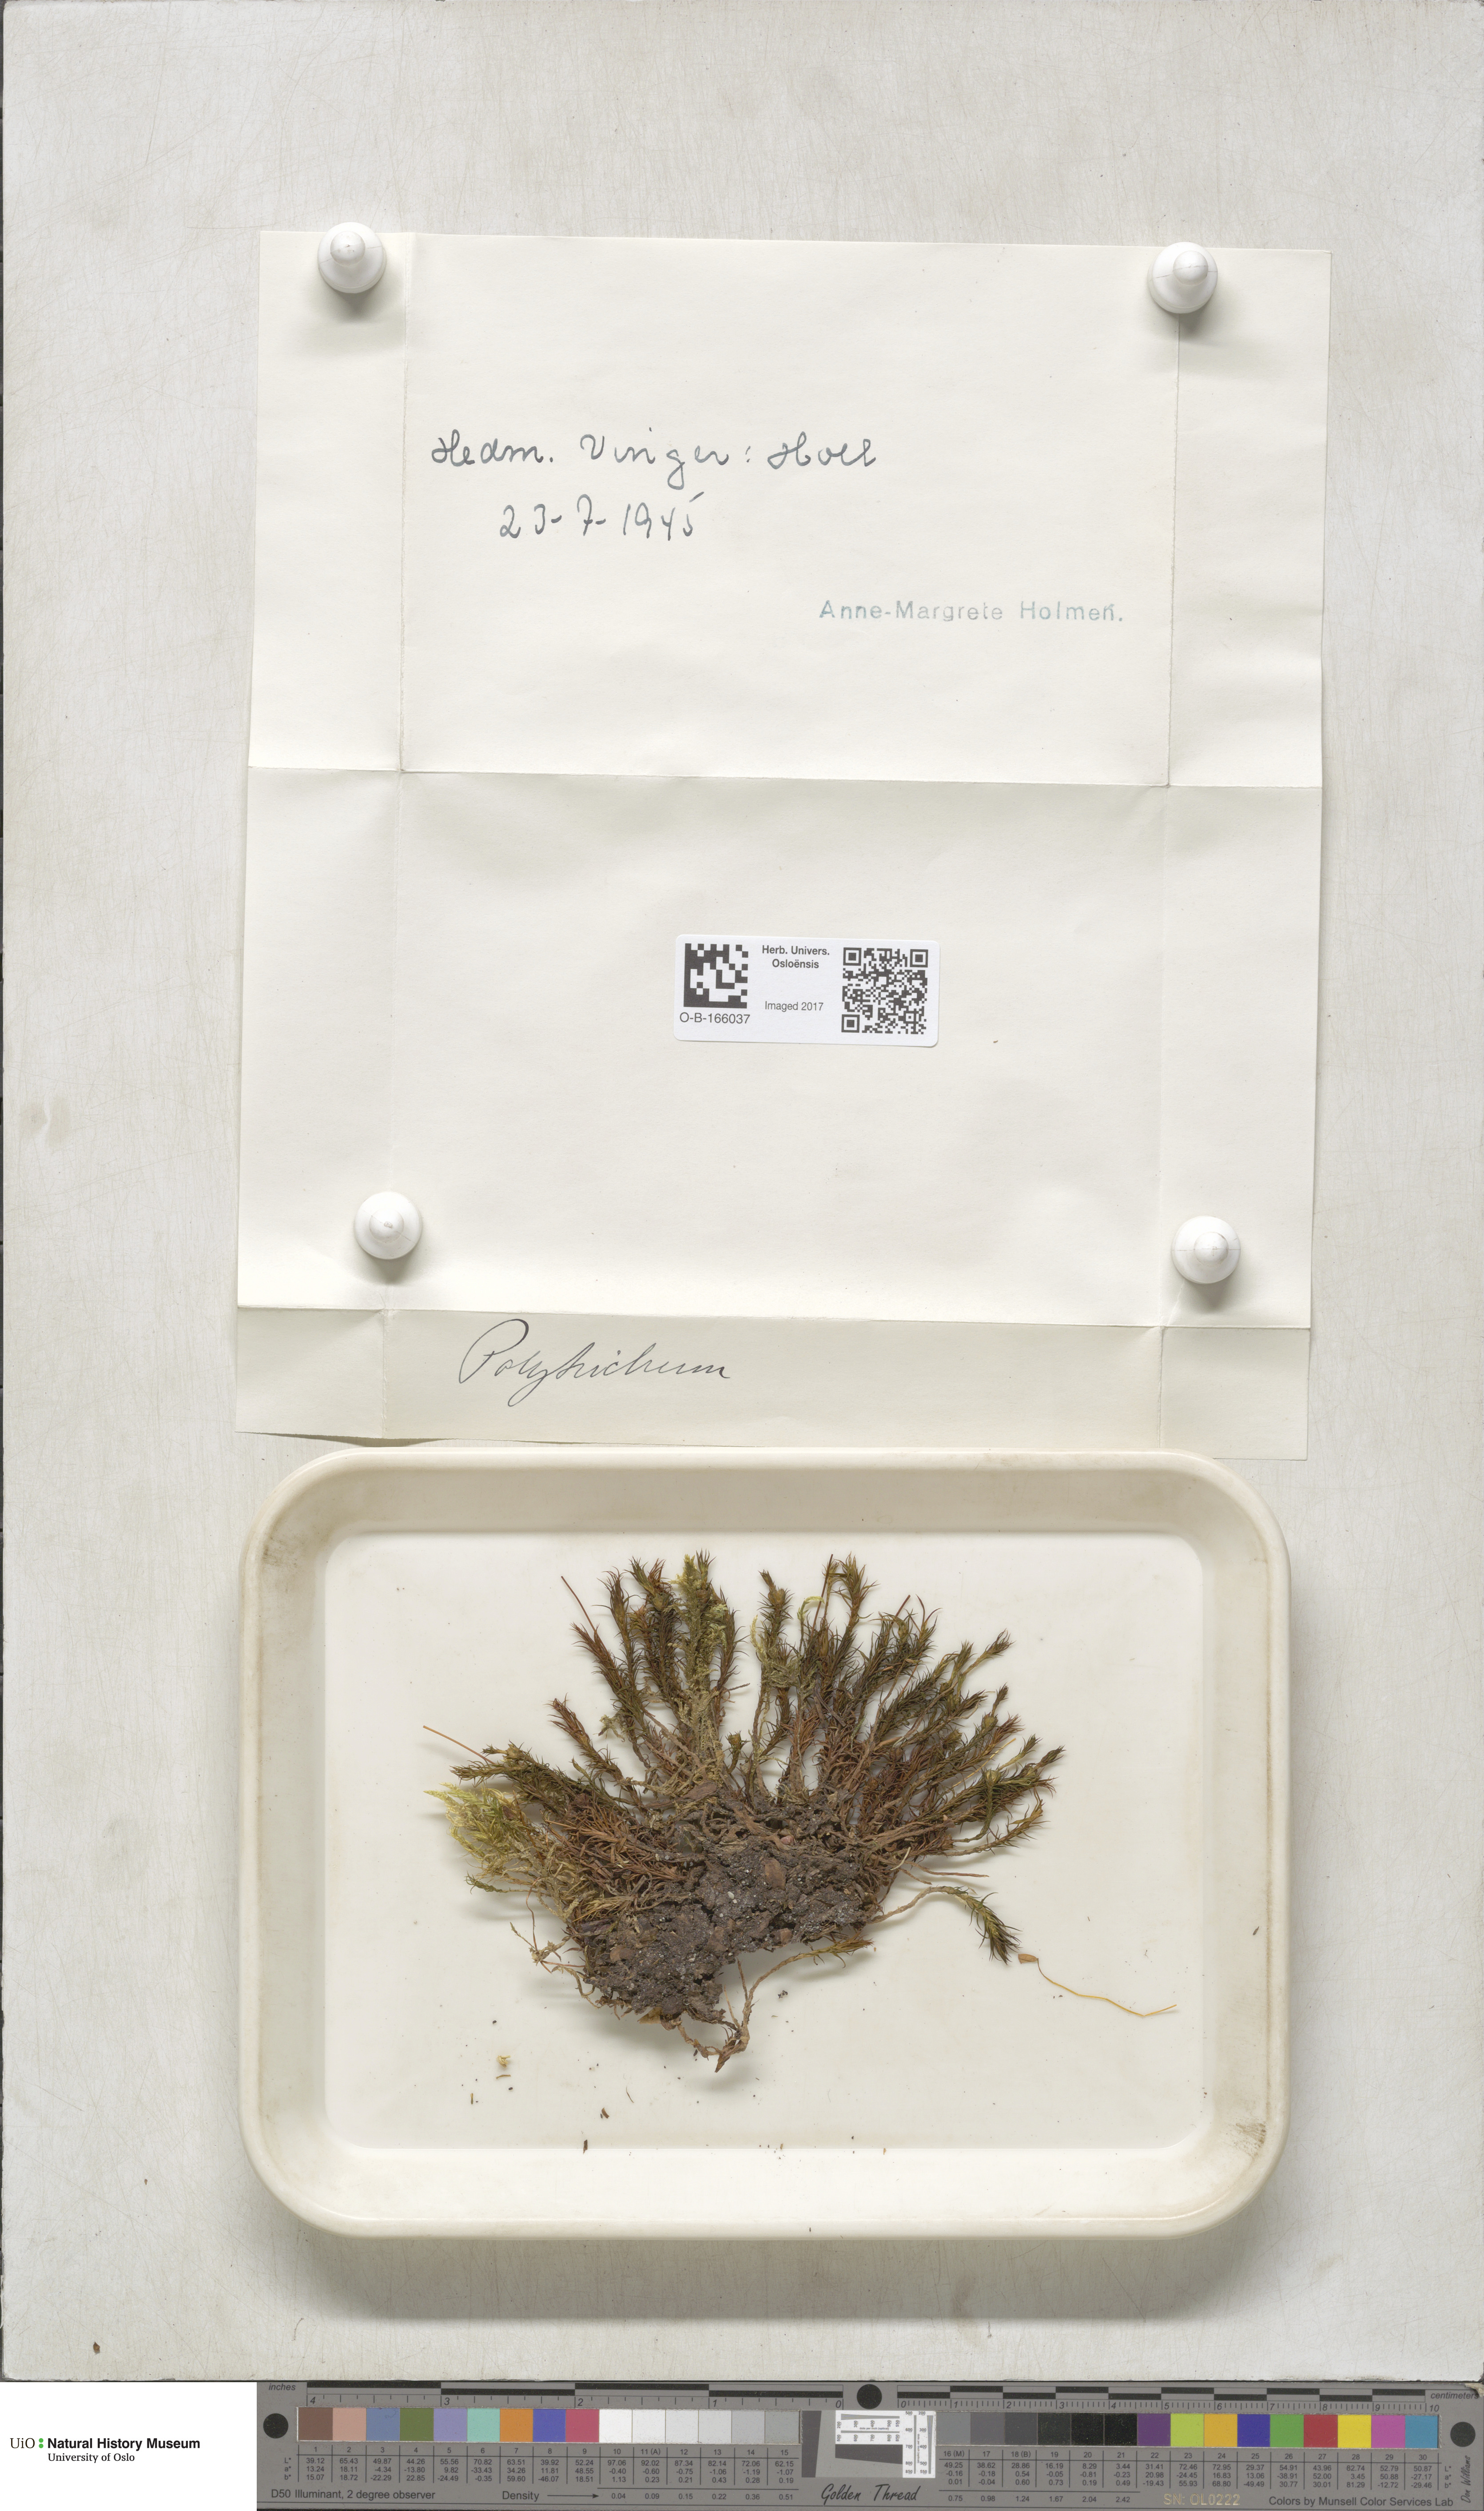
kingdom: Plantae
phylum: Bryophyta
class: Polytrichopsida
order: Polytrichales
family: Polytrichaceae
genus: Polytrichum
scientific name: Polytrichum
